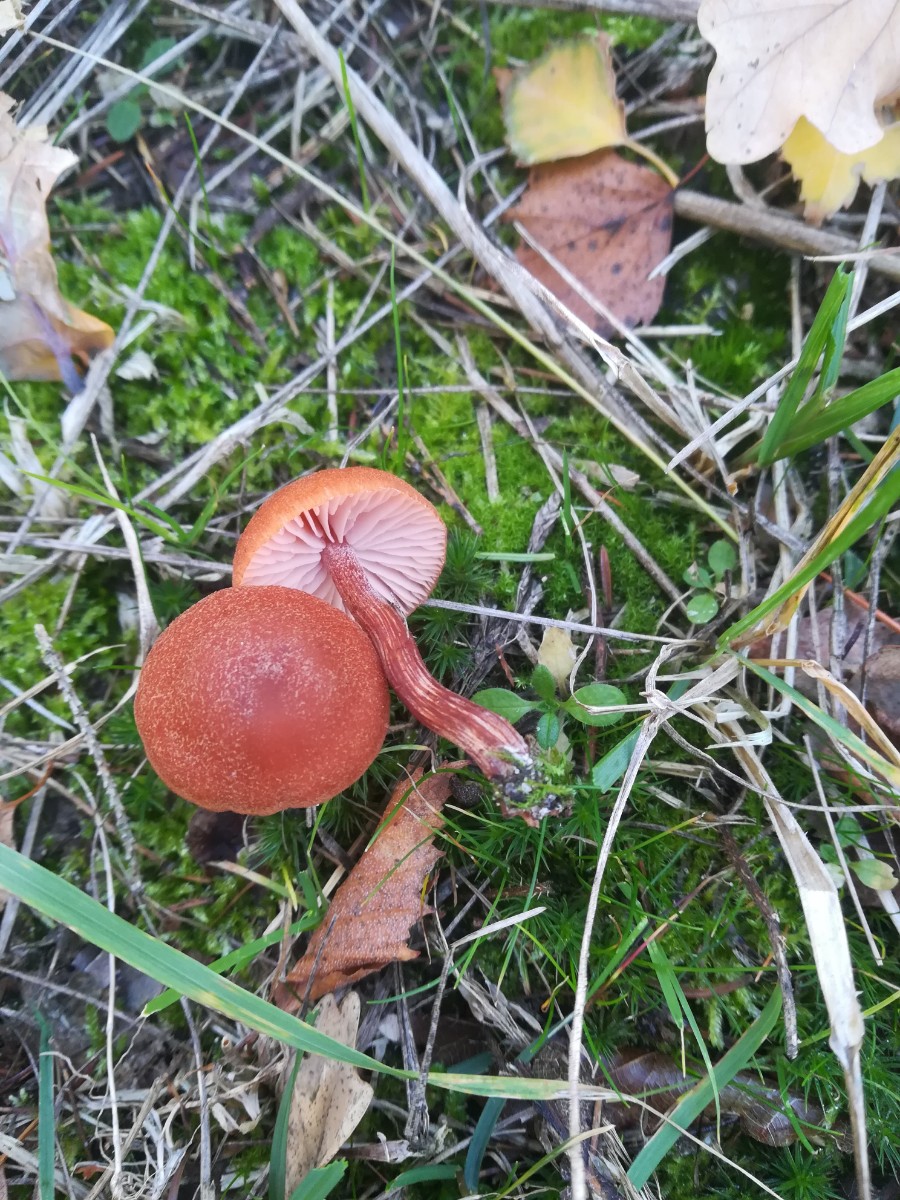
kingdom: Fungi
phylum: Basidiomycota
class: Agaricomycetes
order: Agaricales
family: Hydnangiaceae
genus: Laccaria
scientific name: Laccaria proxima
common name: stor ametysthat
